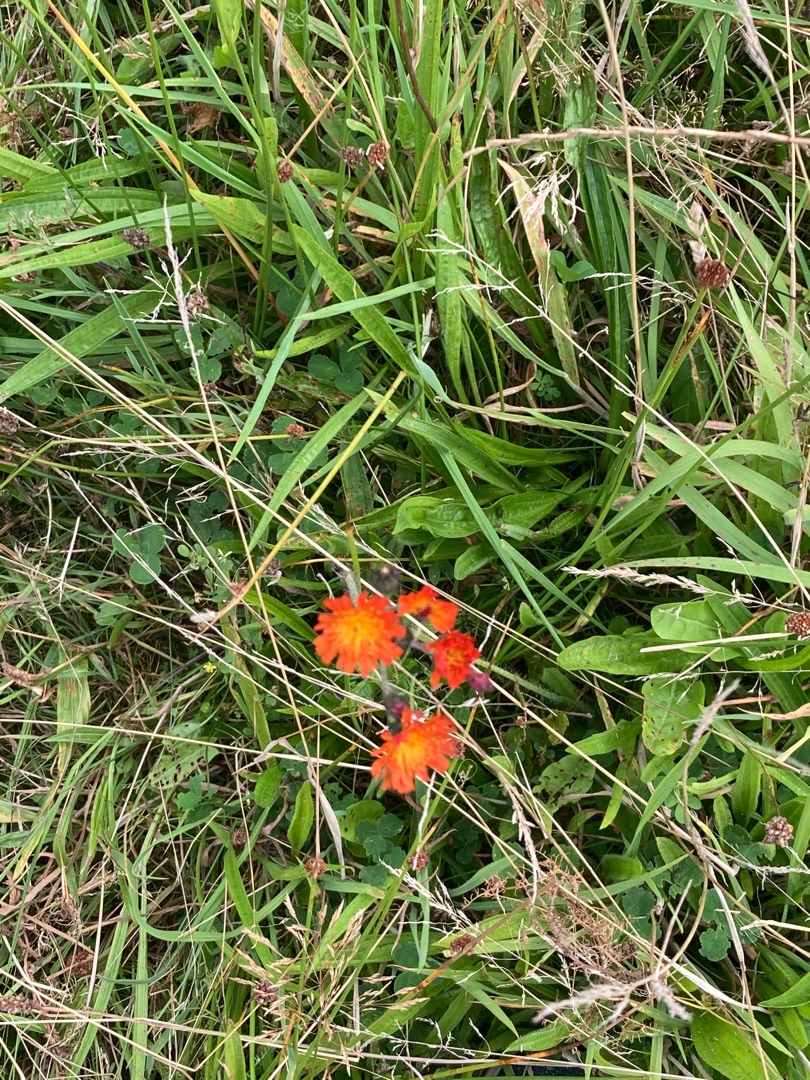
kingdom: Plantae
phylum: Tracheophyta
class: Magnoliopsida
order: Asterales
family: Asteraceae
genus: Pilosella
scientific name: Pilosella aurantiaca
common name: Pomerans-høgeurt
